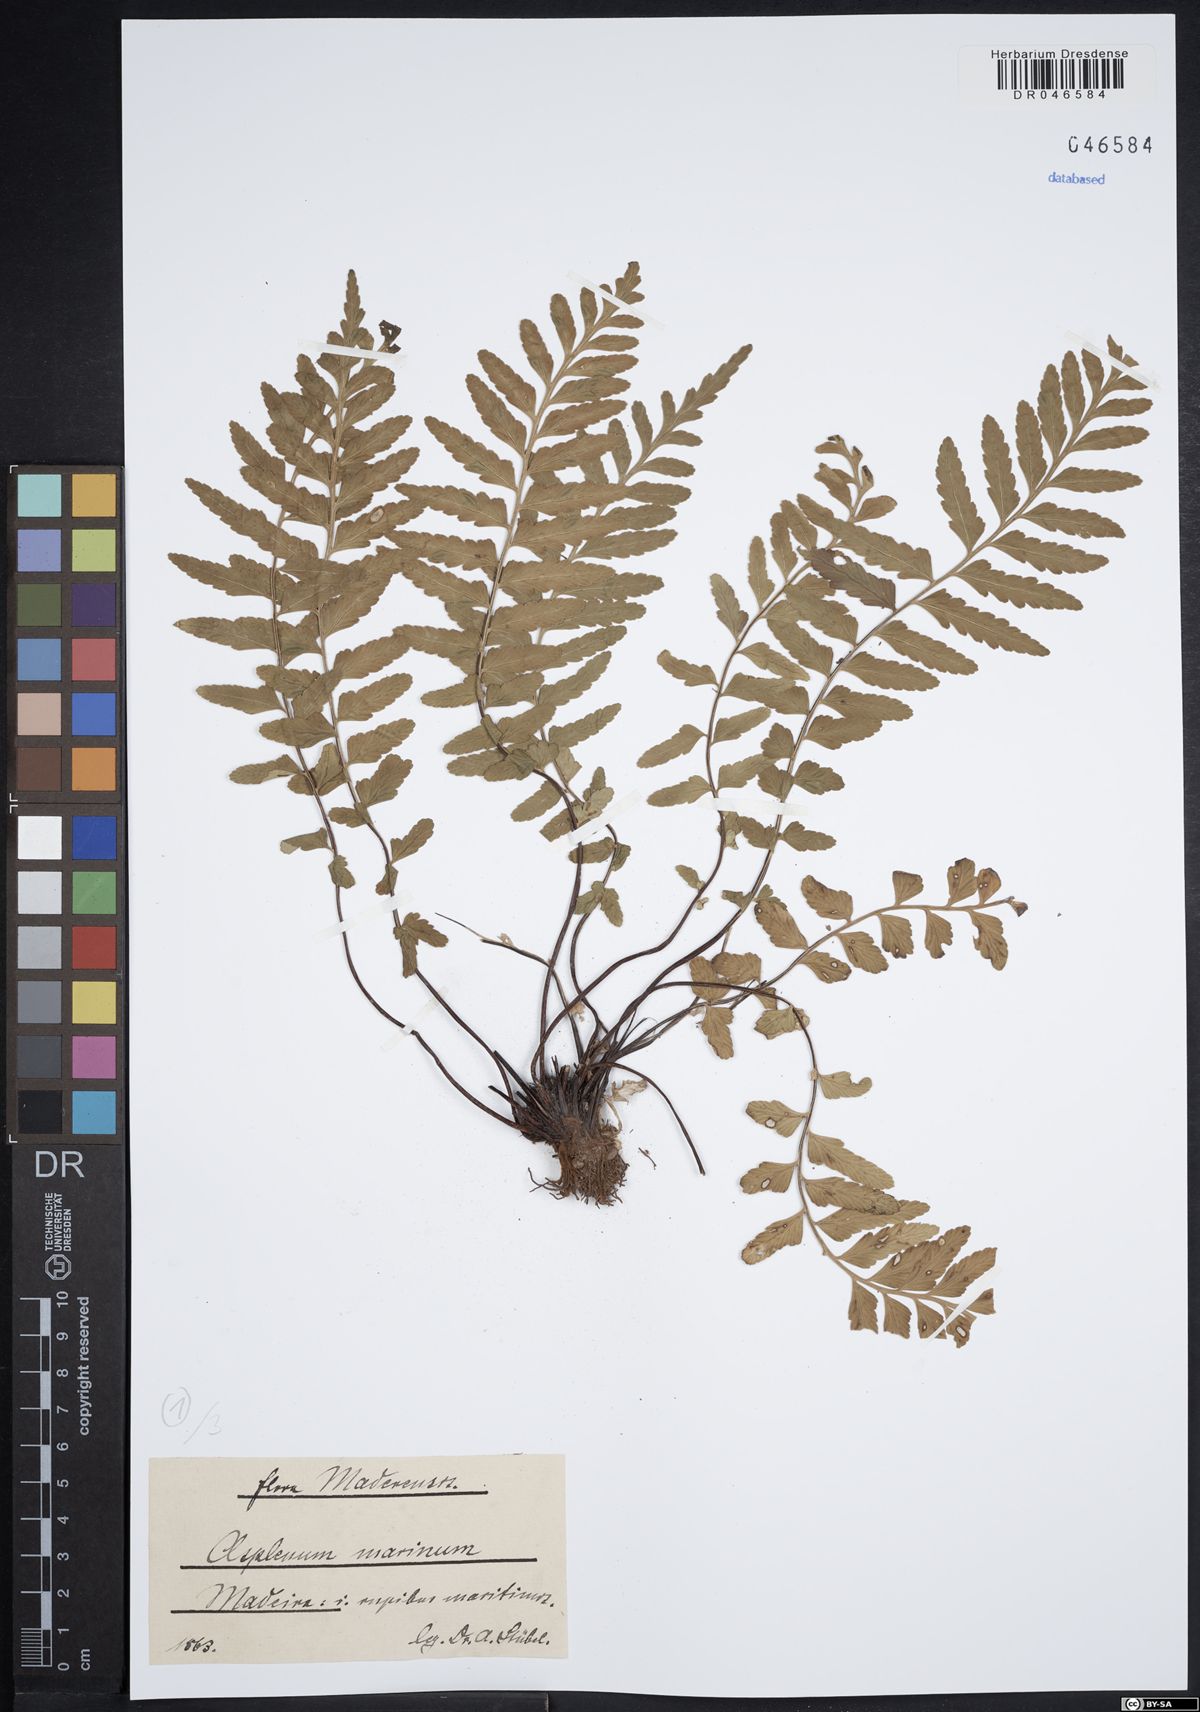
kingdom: Plantae
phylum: Tracheophyta
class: Polypodiopsida
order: Polypodiales
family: Aspleniaceae
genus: Asplenium
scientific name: Asplenium marinum
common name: Sea spleenwort
